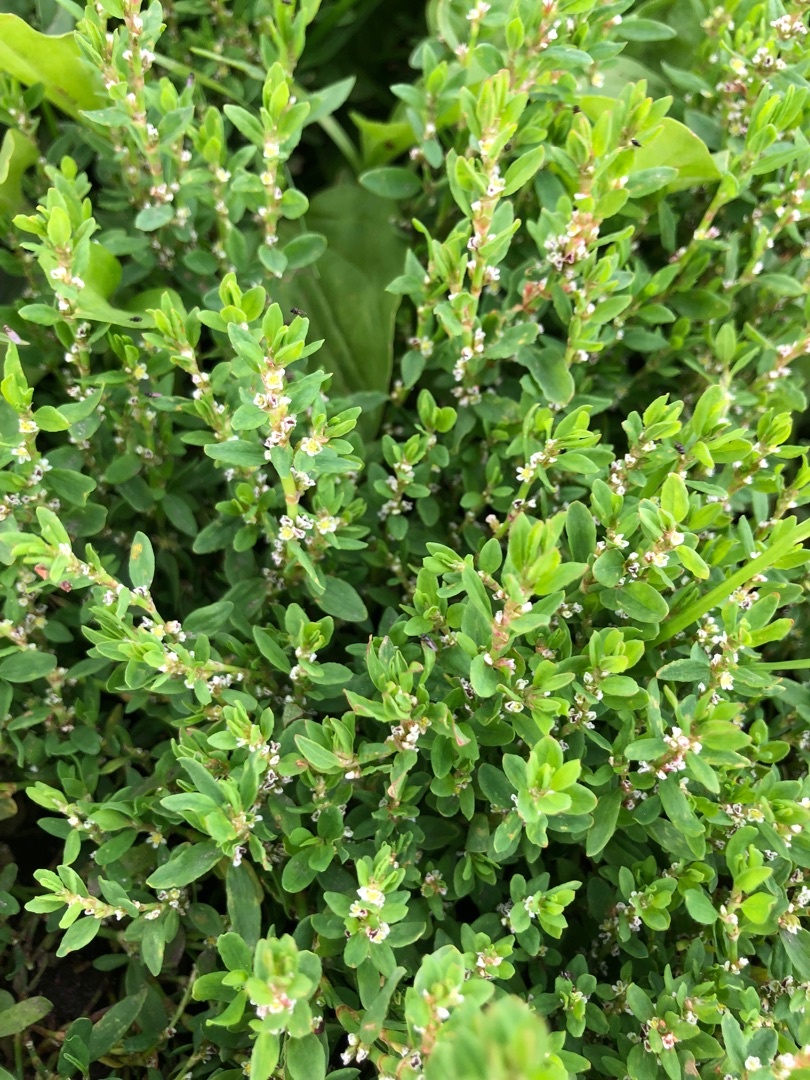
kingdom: Plantae
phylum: Tracheophyta
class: Magnoliopsida
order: Caryophyllales
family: Polygonaceae
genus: Polygonum
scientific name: Polygonum aviculare
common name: Vej-pileurt
